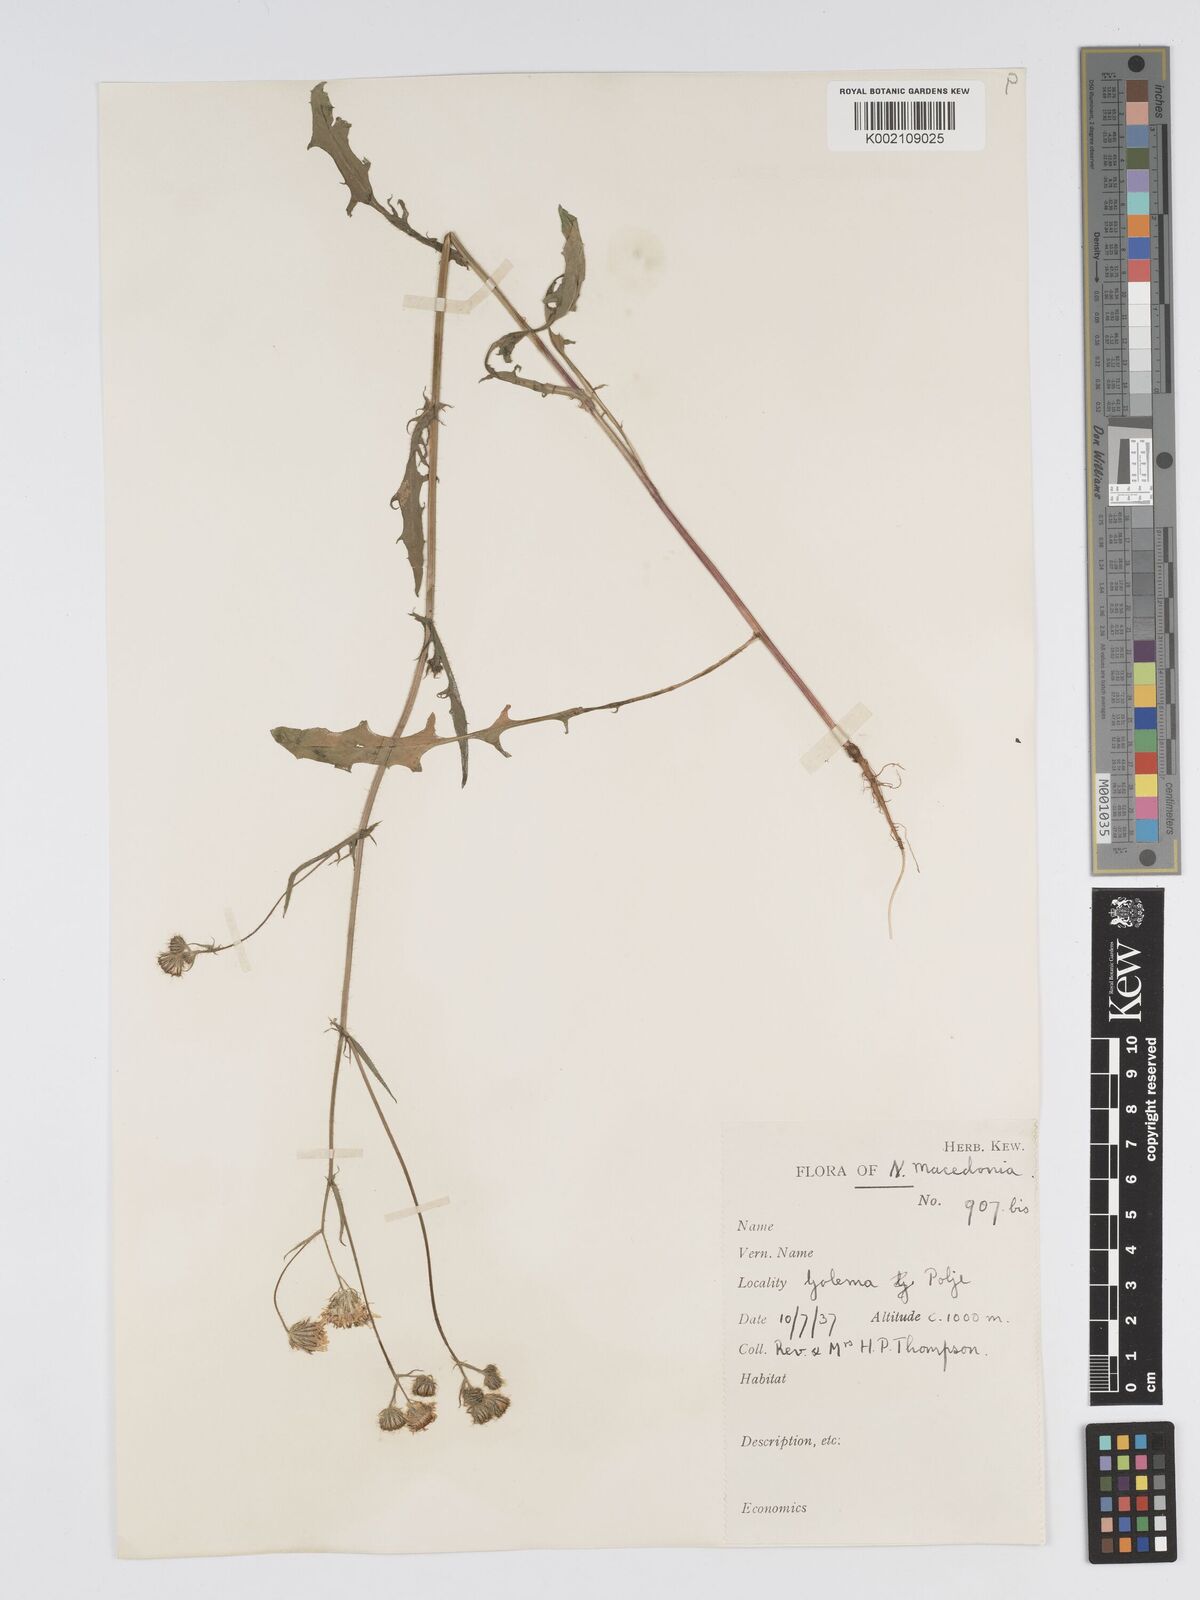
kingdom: Plantae
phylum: Tracheophyta
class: Magnoliopsida
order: Asterales
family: Asteraceae
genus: Crepis
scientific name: Crepis setosa
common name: Bristly hawk's-beard
